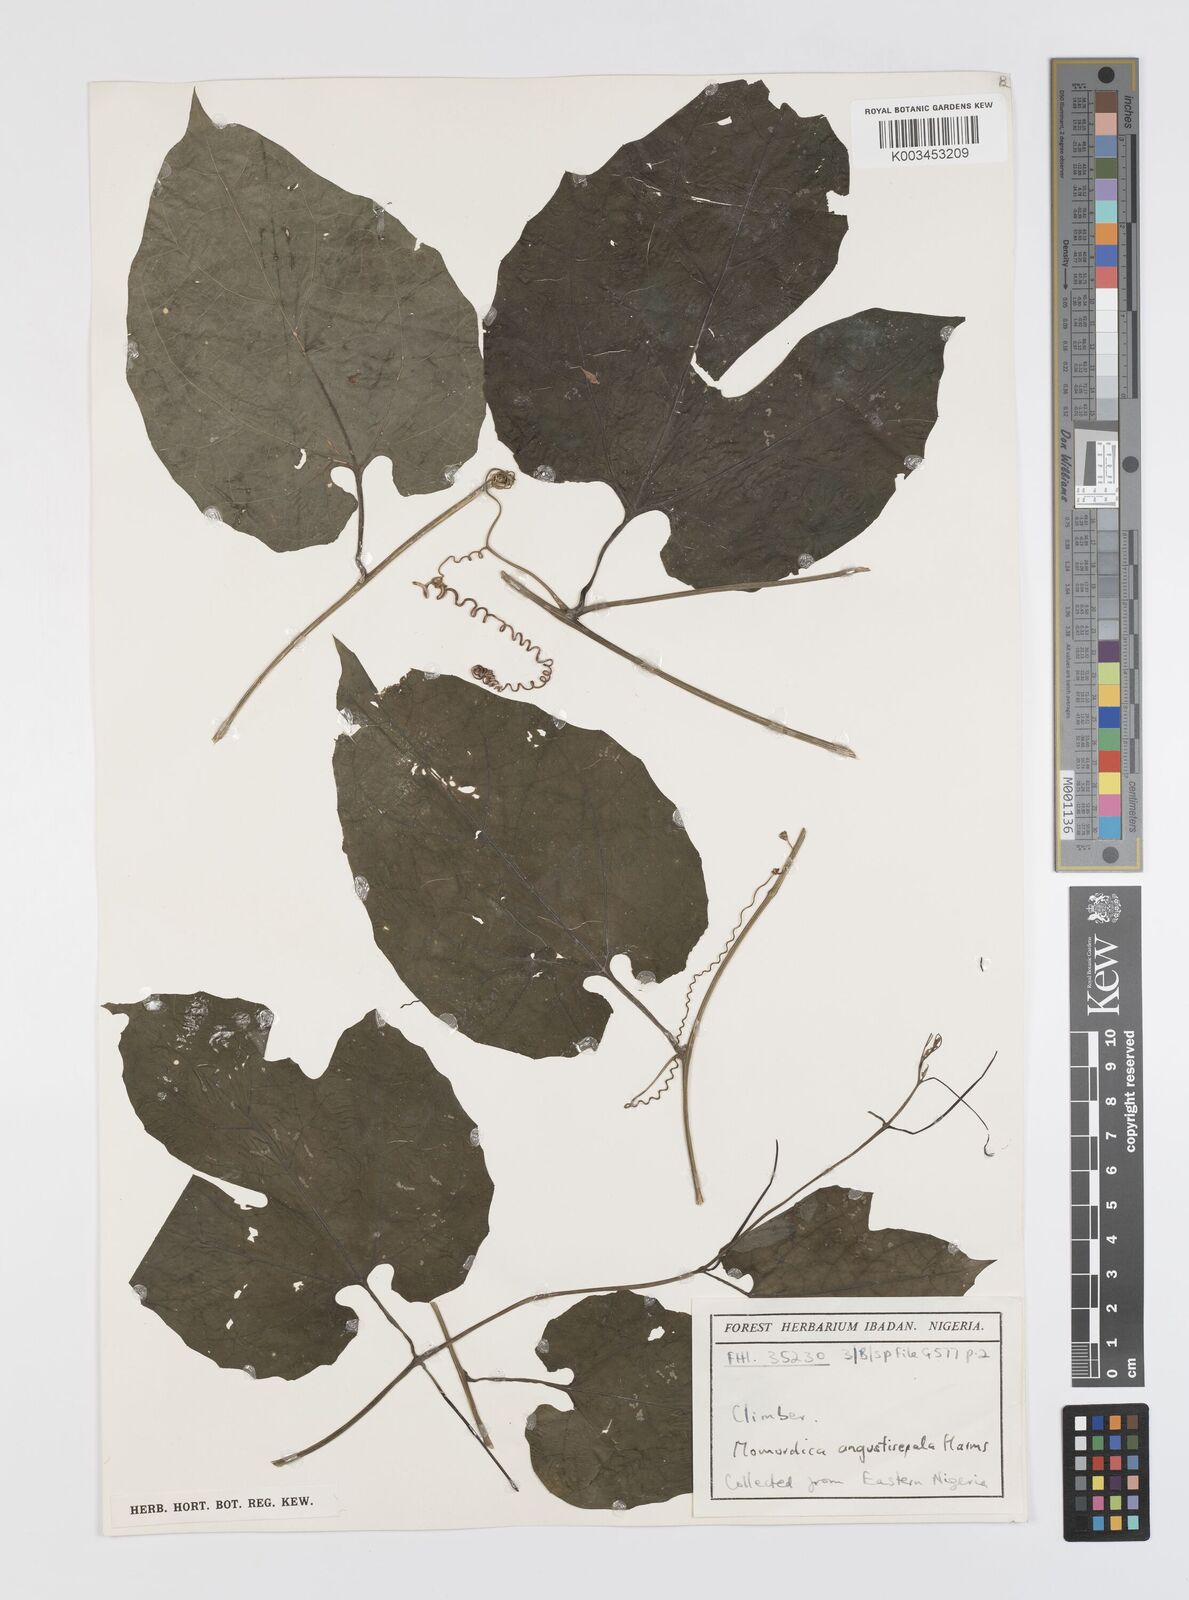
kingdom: Plantae
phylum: Tracheophyta
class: Magnoliopsida
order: Cucurbitales
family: Cucurbitaceae
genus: Momordica
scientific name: Momordica angustisepala
